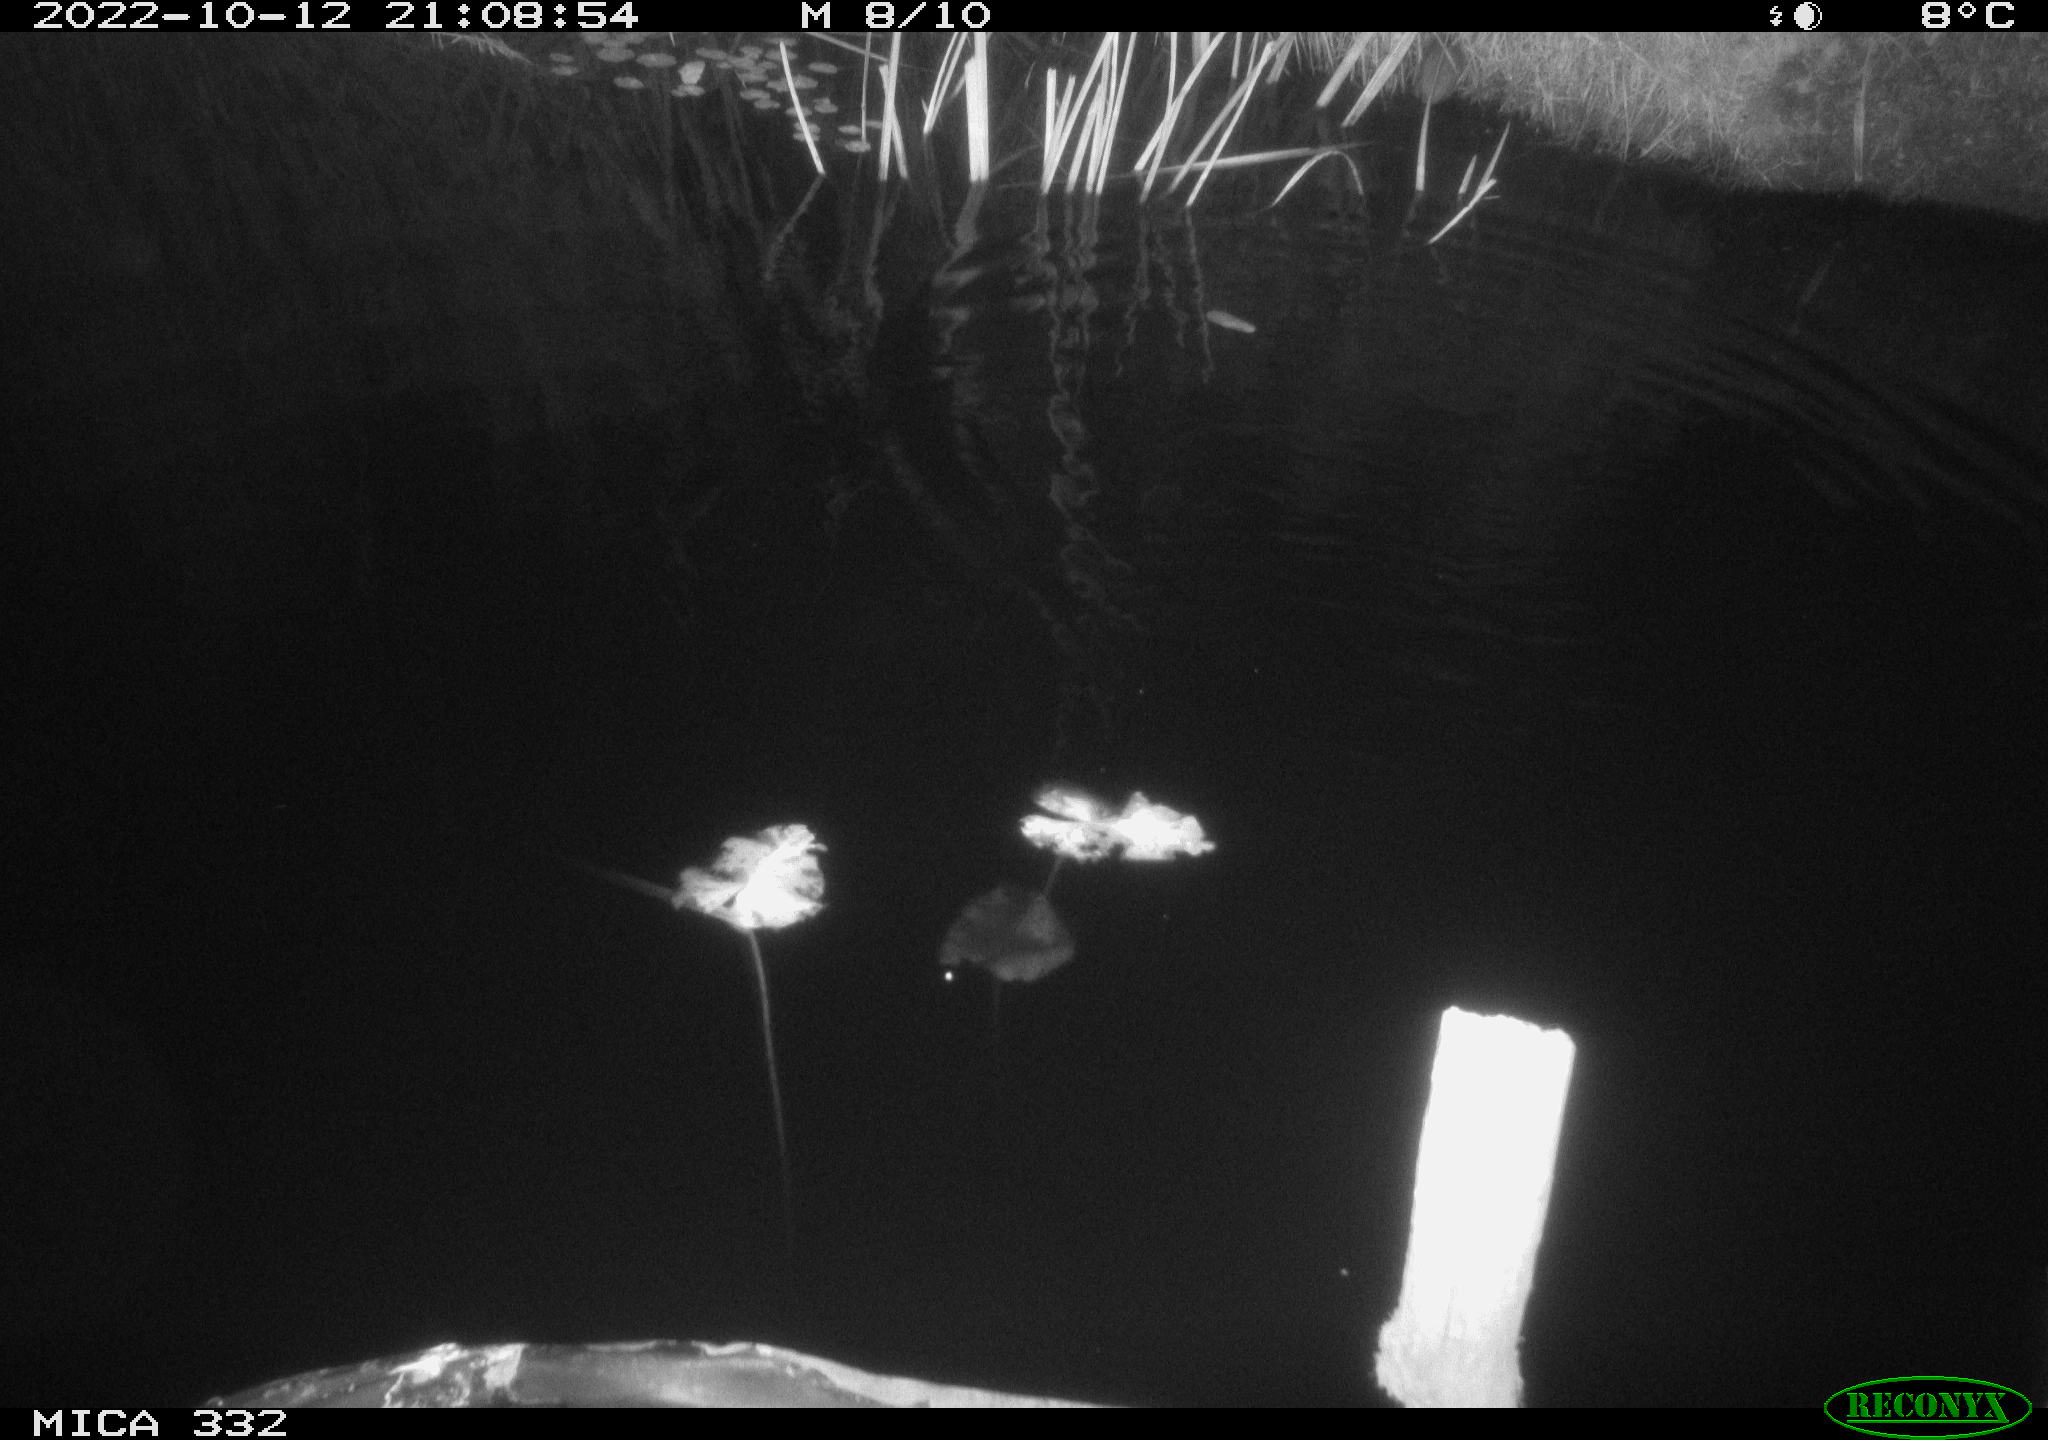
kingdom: Animalia
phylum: Chordata
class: Mammalia
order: Rodentia
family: Muridae
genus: Rattus
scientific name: Rattus norvegicus
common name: Brown rat
